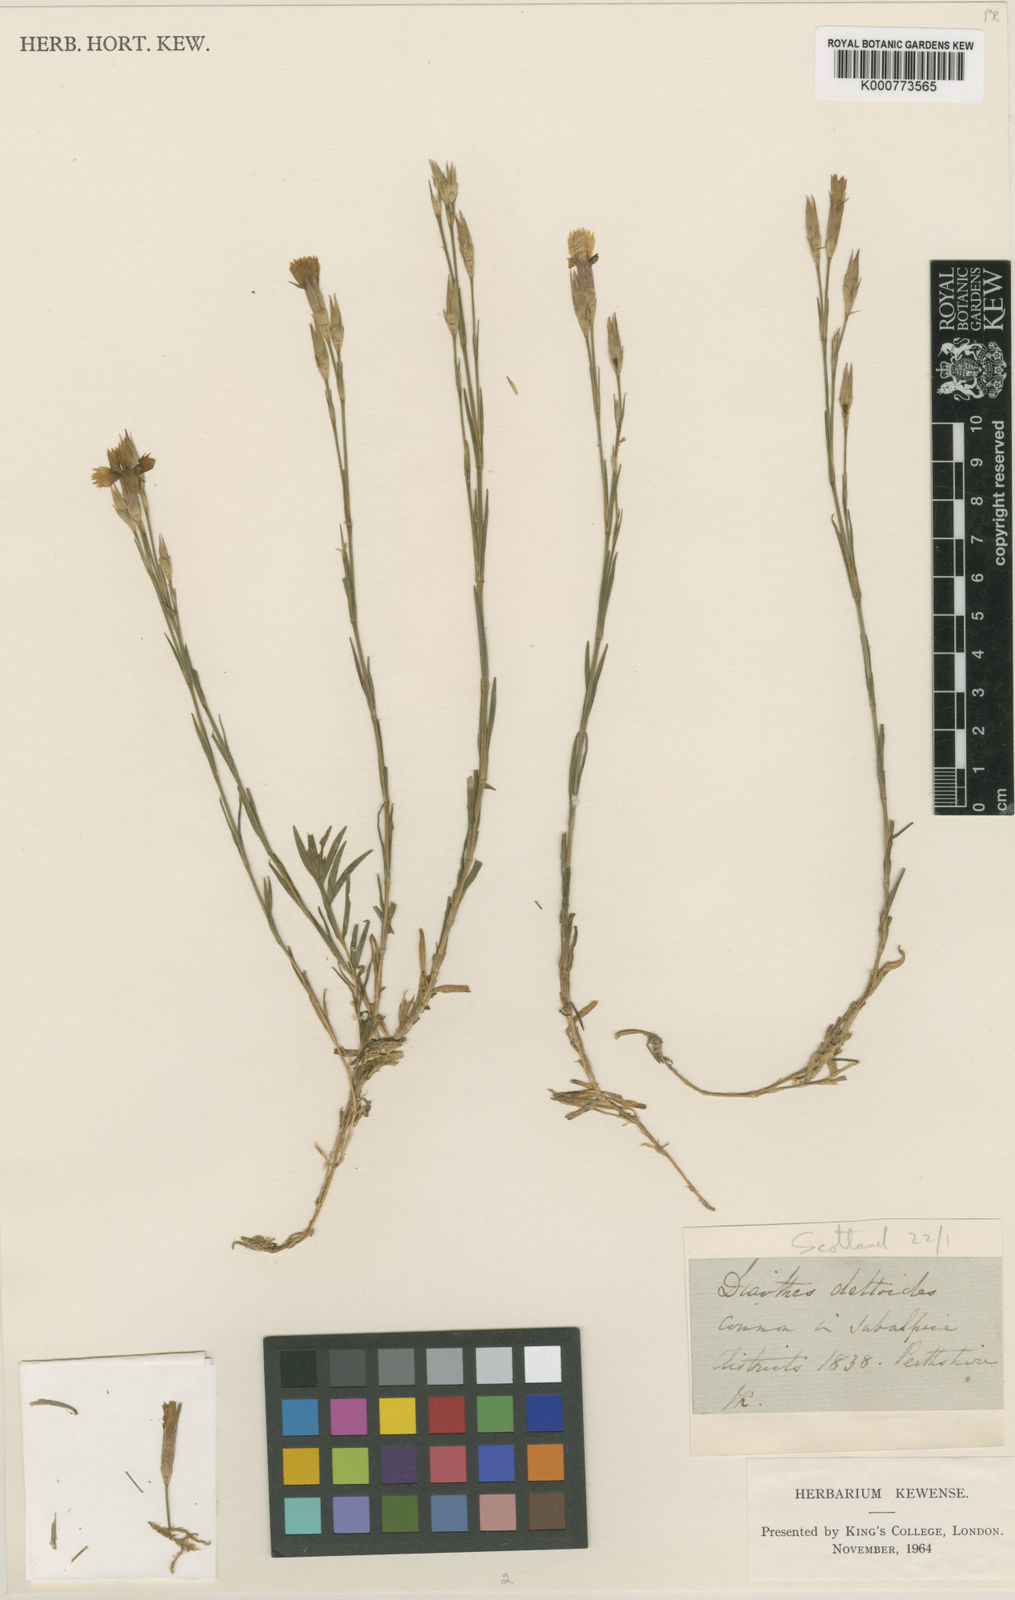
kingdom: Plantae
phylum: Tracheophyta
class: Magnoliopsida
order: Caryophyllales
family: Caryophyllaceae
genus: Dianthus
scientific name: Dianthus deltoides
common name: Maiden pink
